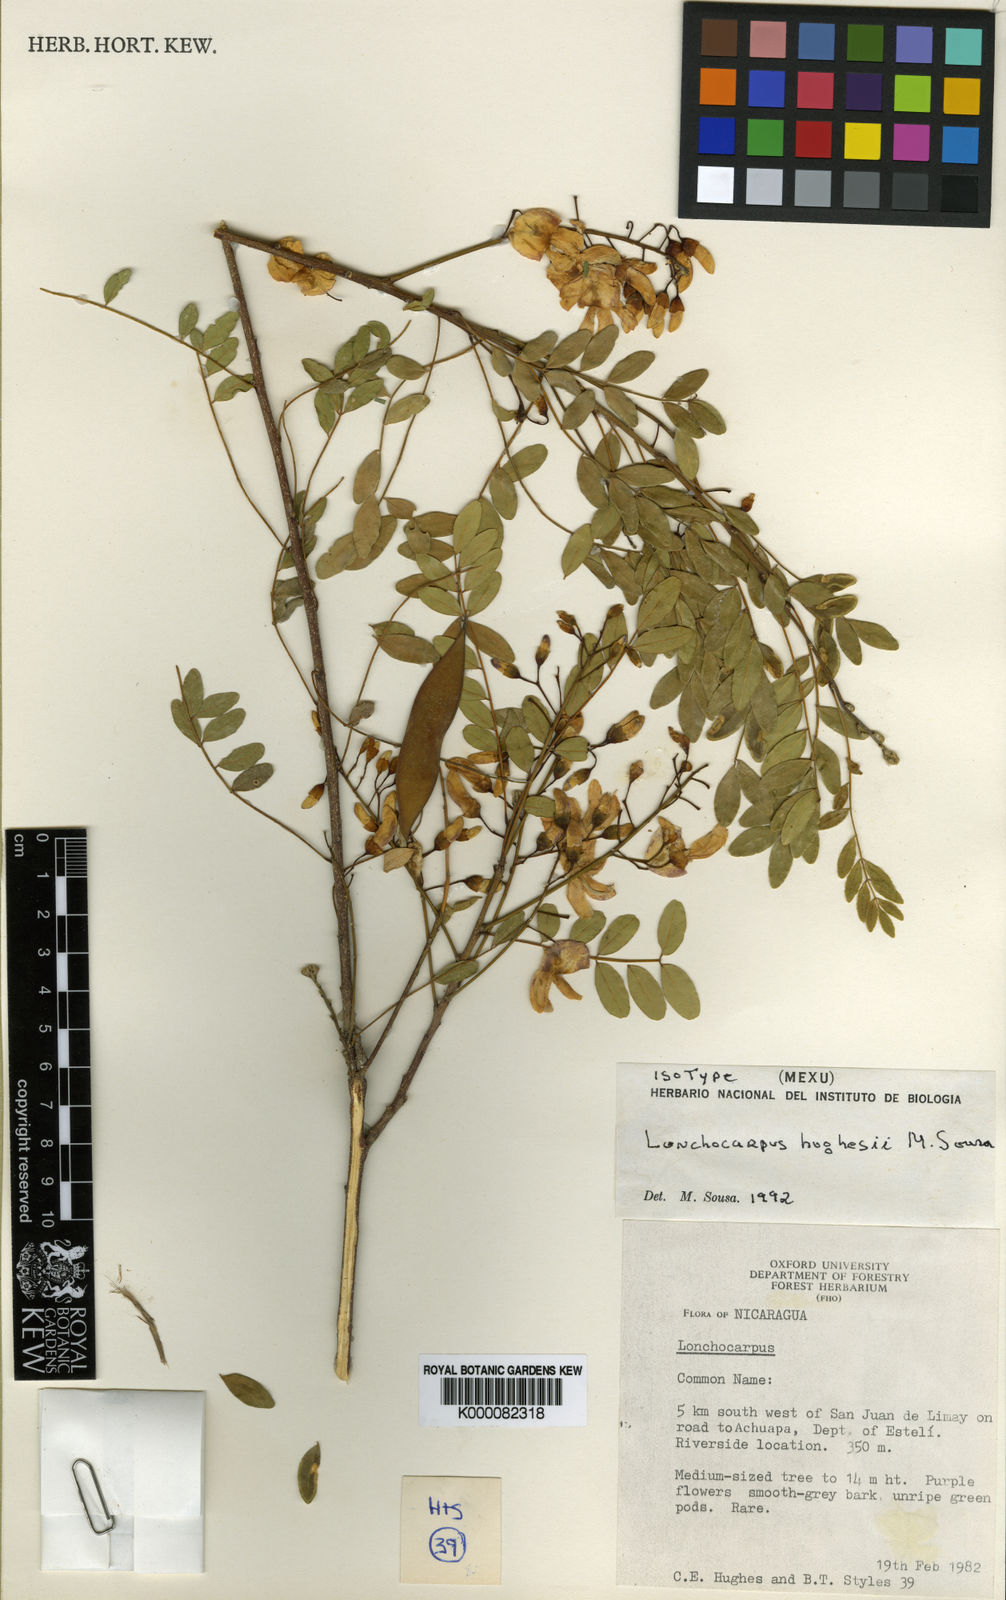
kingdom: Plantae
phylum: Tracheophyta
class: Magnoliopsida
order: Fabales
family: Fabaceae
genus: Lonchocarpus
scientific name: Lonchocarpus hughesii
